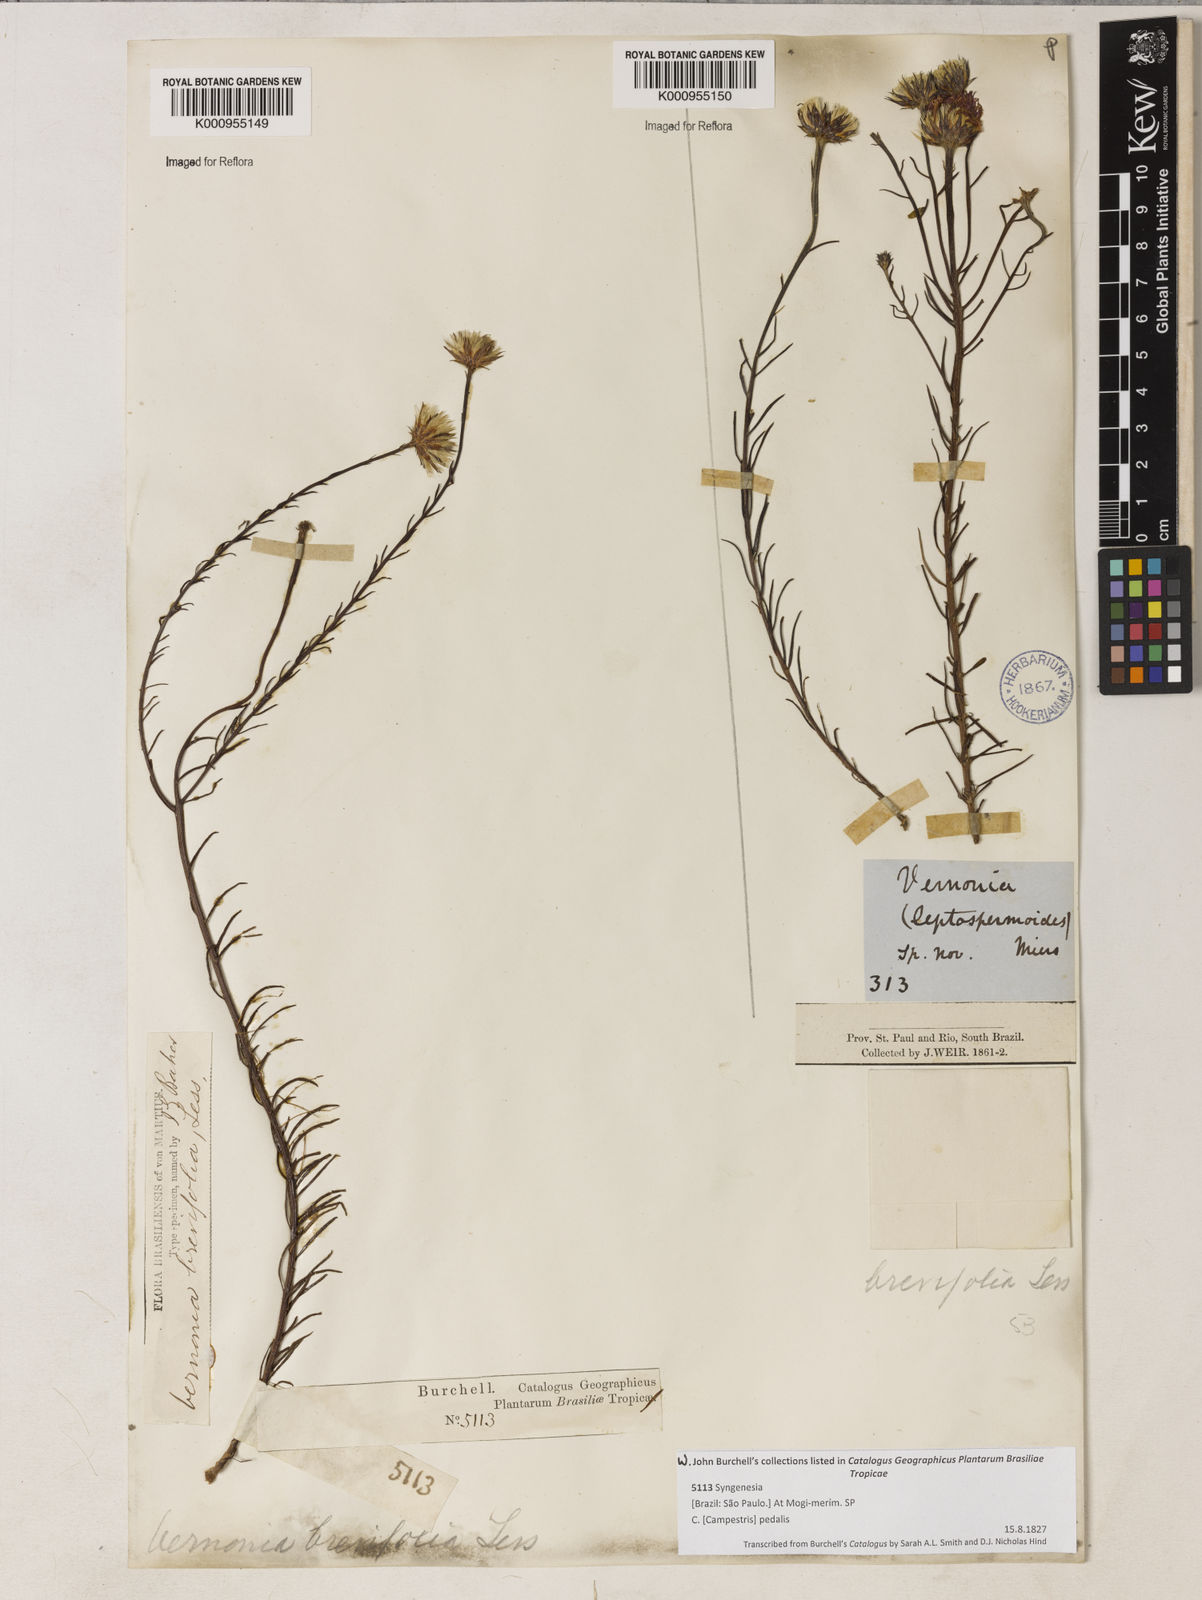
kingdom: Plantae
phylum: Tracheophyta
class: Magnoliopsida
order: Asterales
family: Asteraceae
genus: Lessingianthus
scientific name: Lessingianthus brevifolius
